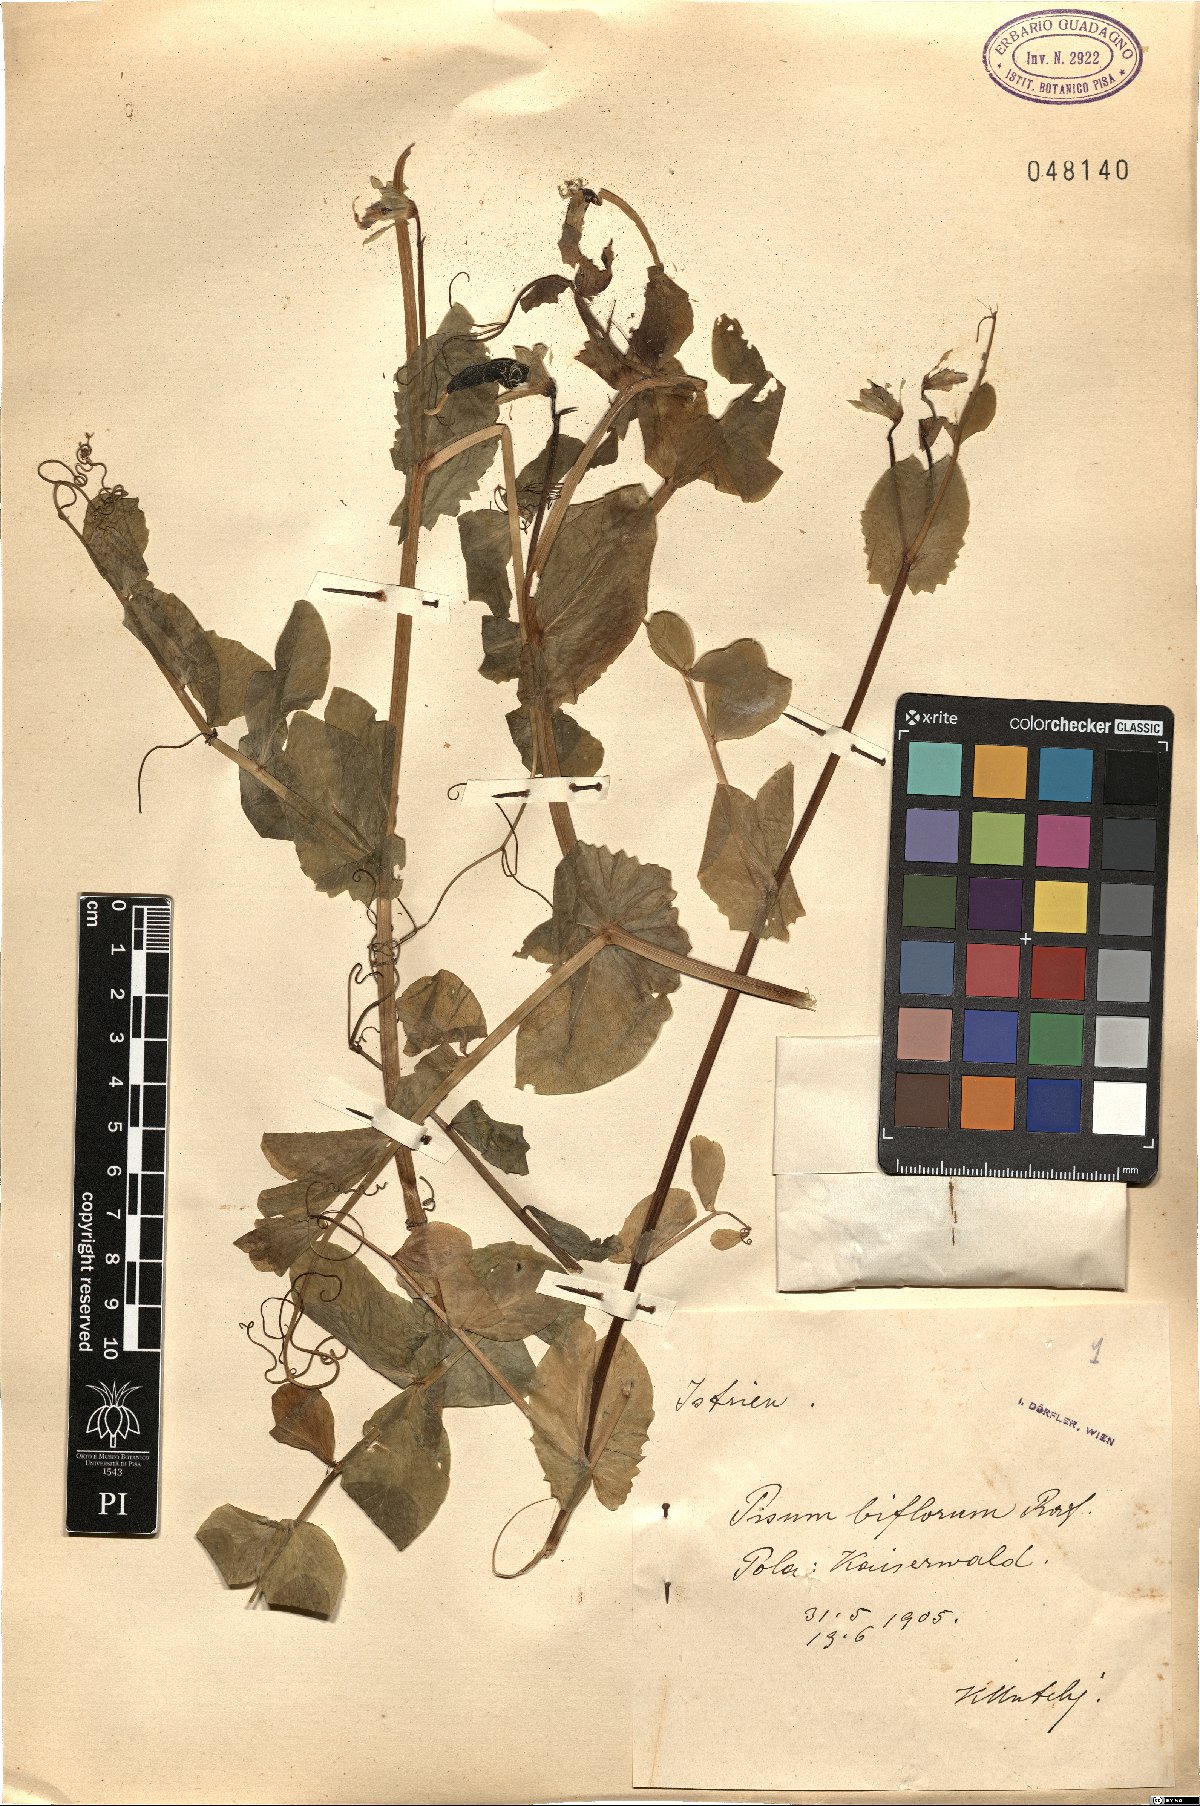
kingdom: Plantae
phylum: Tracheophyta
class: Magnoliopsida
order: Fabales
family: Fabaceae
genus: Lathyrus
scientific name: Lathyrus oleraceus
